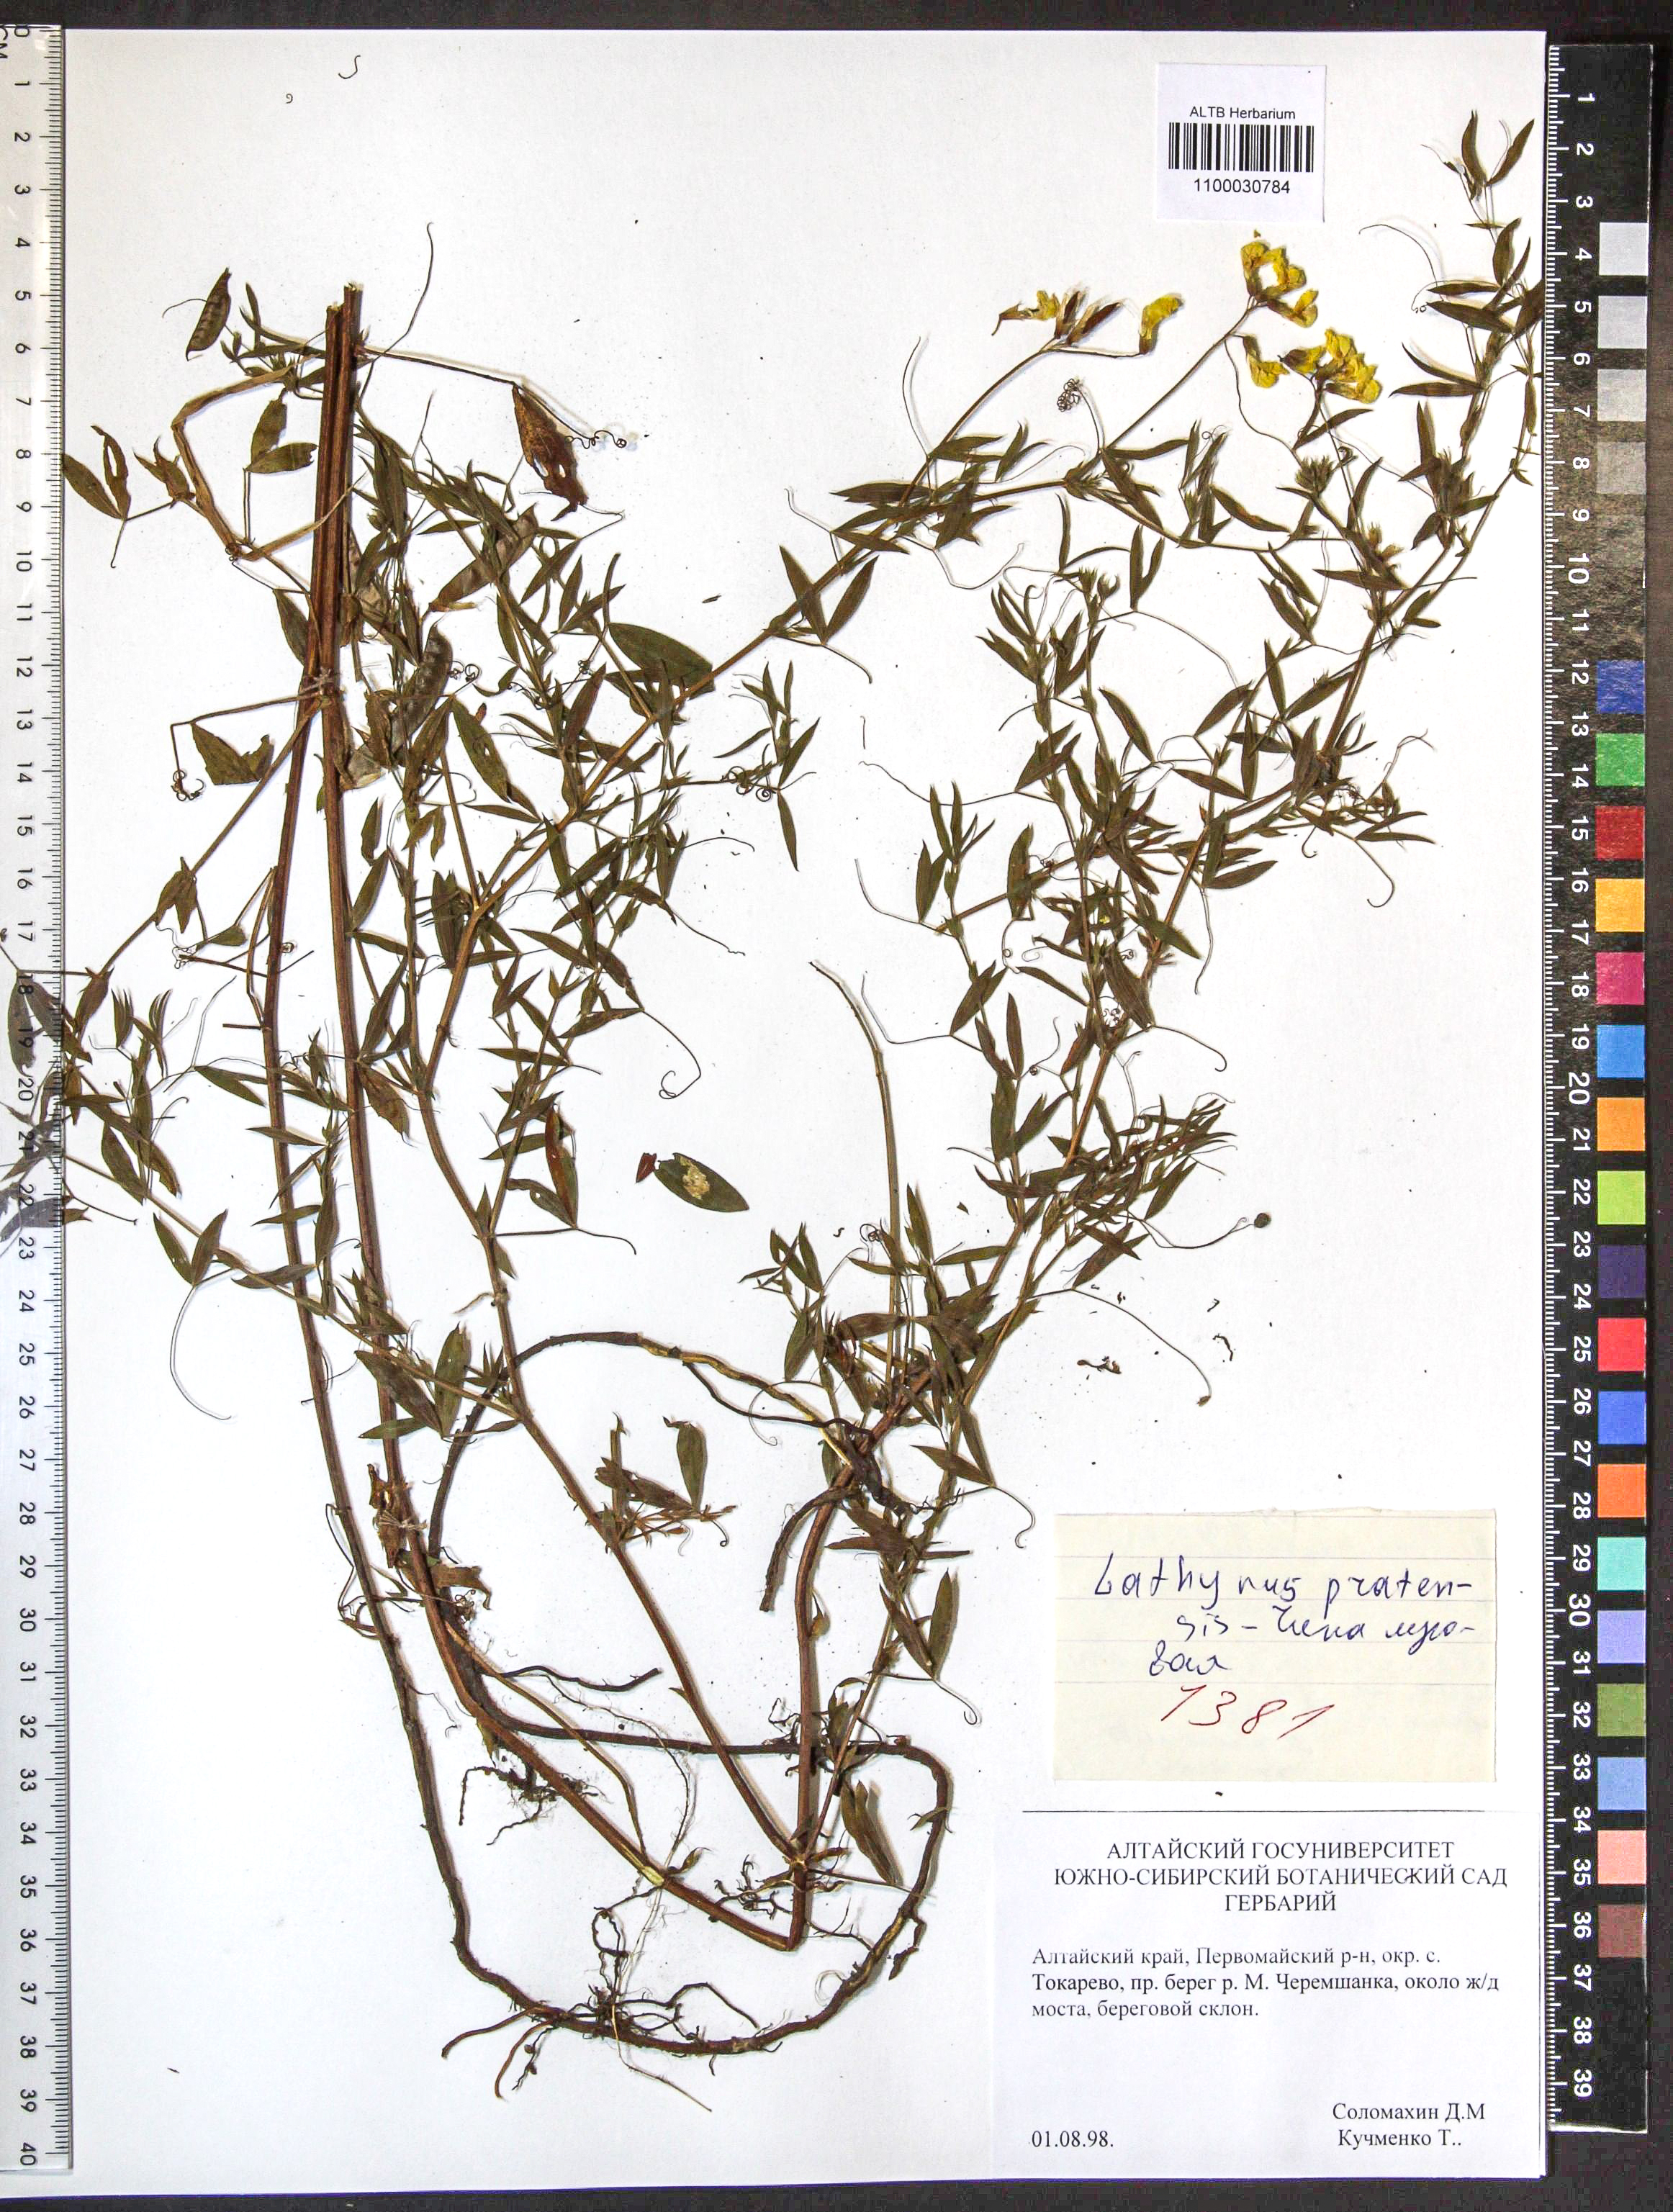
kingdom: Plantae
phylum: Tracheophyta
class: Magnoliopsida
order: Fabales
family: Fabaceae
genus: Lathyrus
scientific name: Lathyrus pratensis
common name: Meadow vetchling
